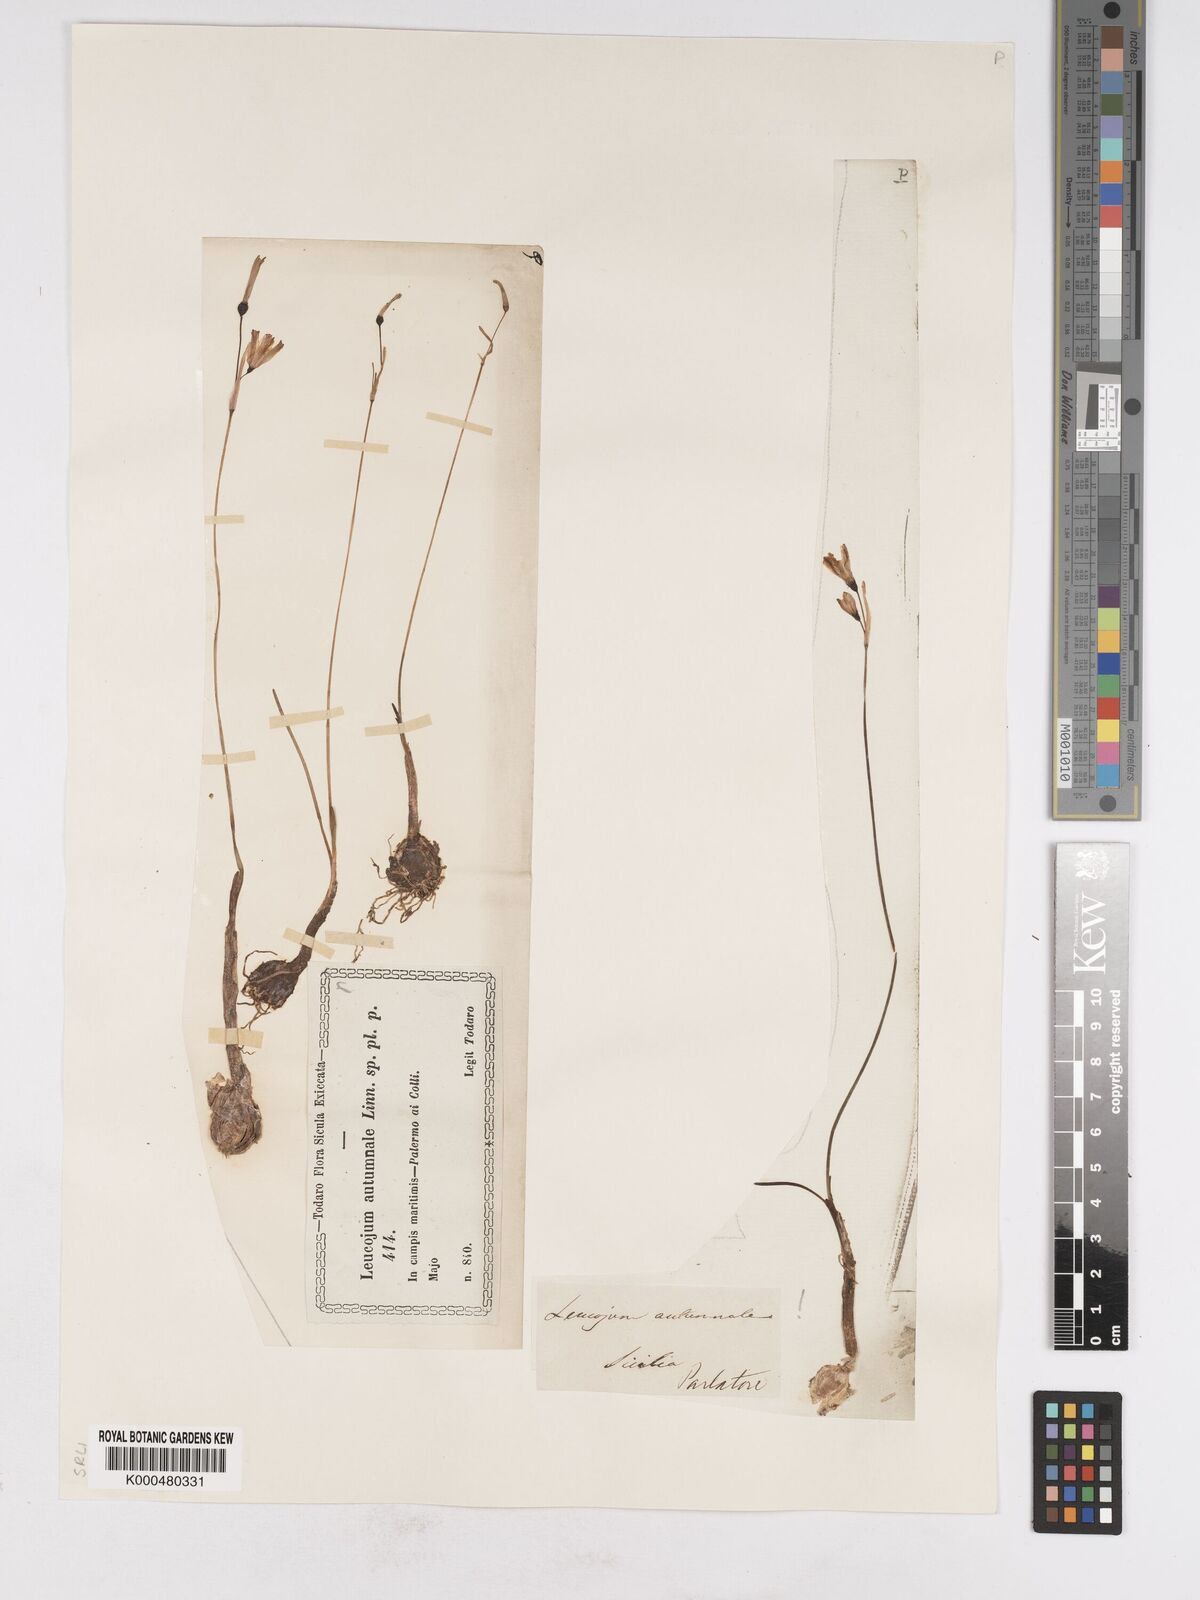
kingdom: Plantae
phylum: Tracheophyta
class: Liliopsida
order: Asparagales
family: Amaryllidaceae
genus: Acis
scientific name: Acis autumnalis
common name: Autumn snowflake
